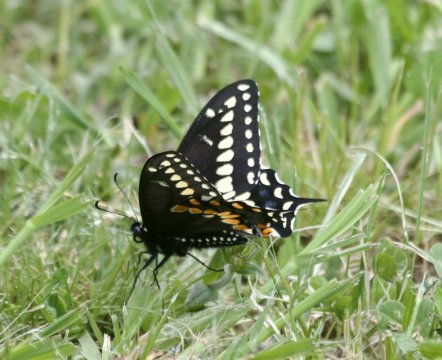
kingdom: Animalia
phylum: Arthropoda
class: Insecta
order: Lepidoptera
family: Papilionidae
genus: Papilio
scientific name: Papilio polyxenes
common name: Black Swallowtail
